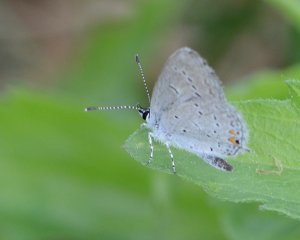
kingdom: Animalia
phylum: Arthropoda
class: Insecta
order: Lepidoptera
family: Lycaenidae
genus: Elkalyce
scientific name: Elkalyce comyntas
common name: Eastern Tailed-Blue
